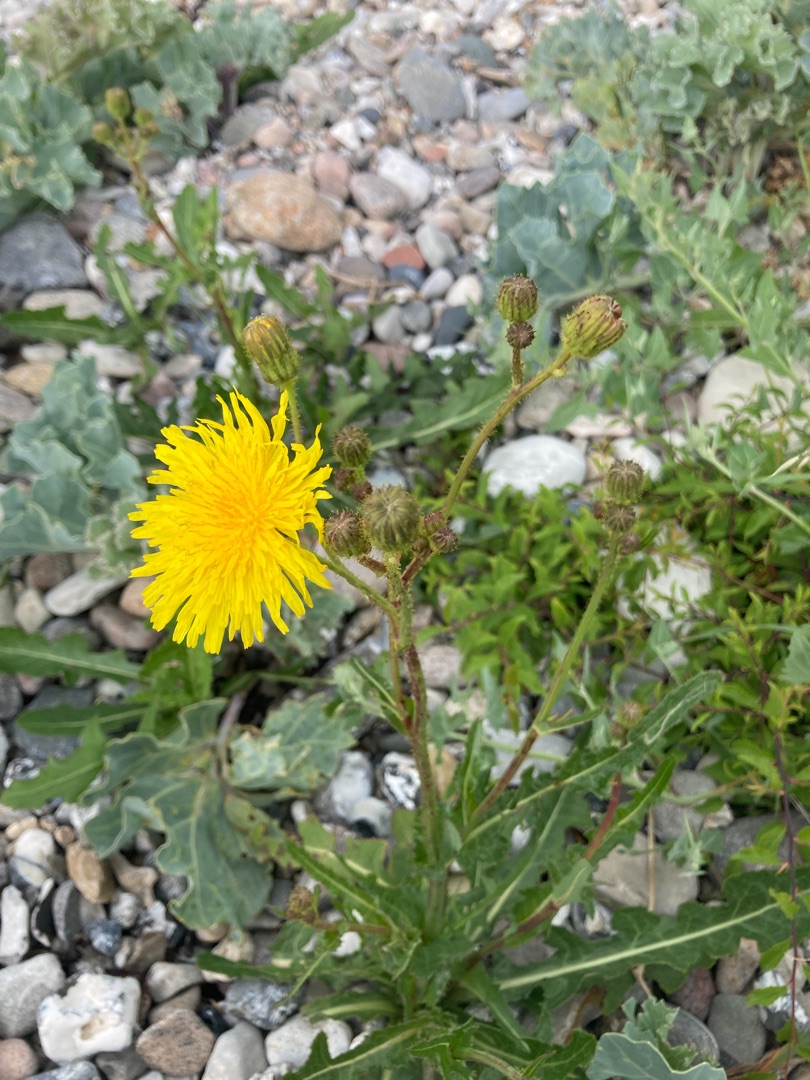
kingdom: Plantae
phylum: Tracheophyta
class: Magnoliopsida
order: Asterales
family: Asteraceae
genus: Sonchus
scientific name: Sonchus arvensis
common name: Ager-svinemælk
